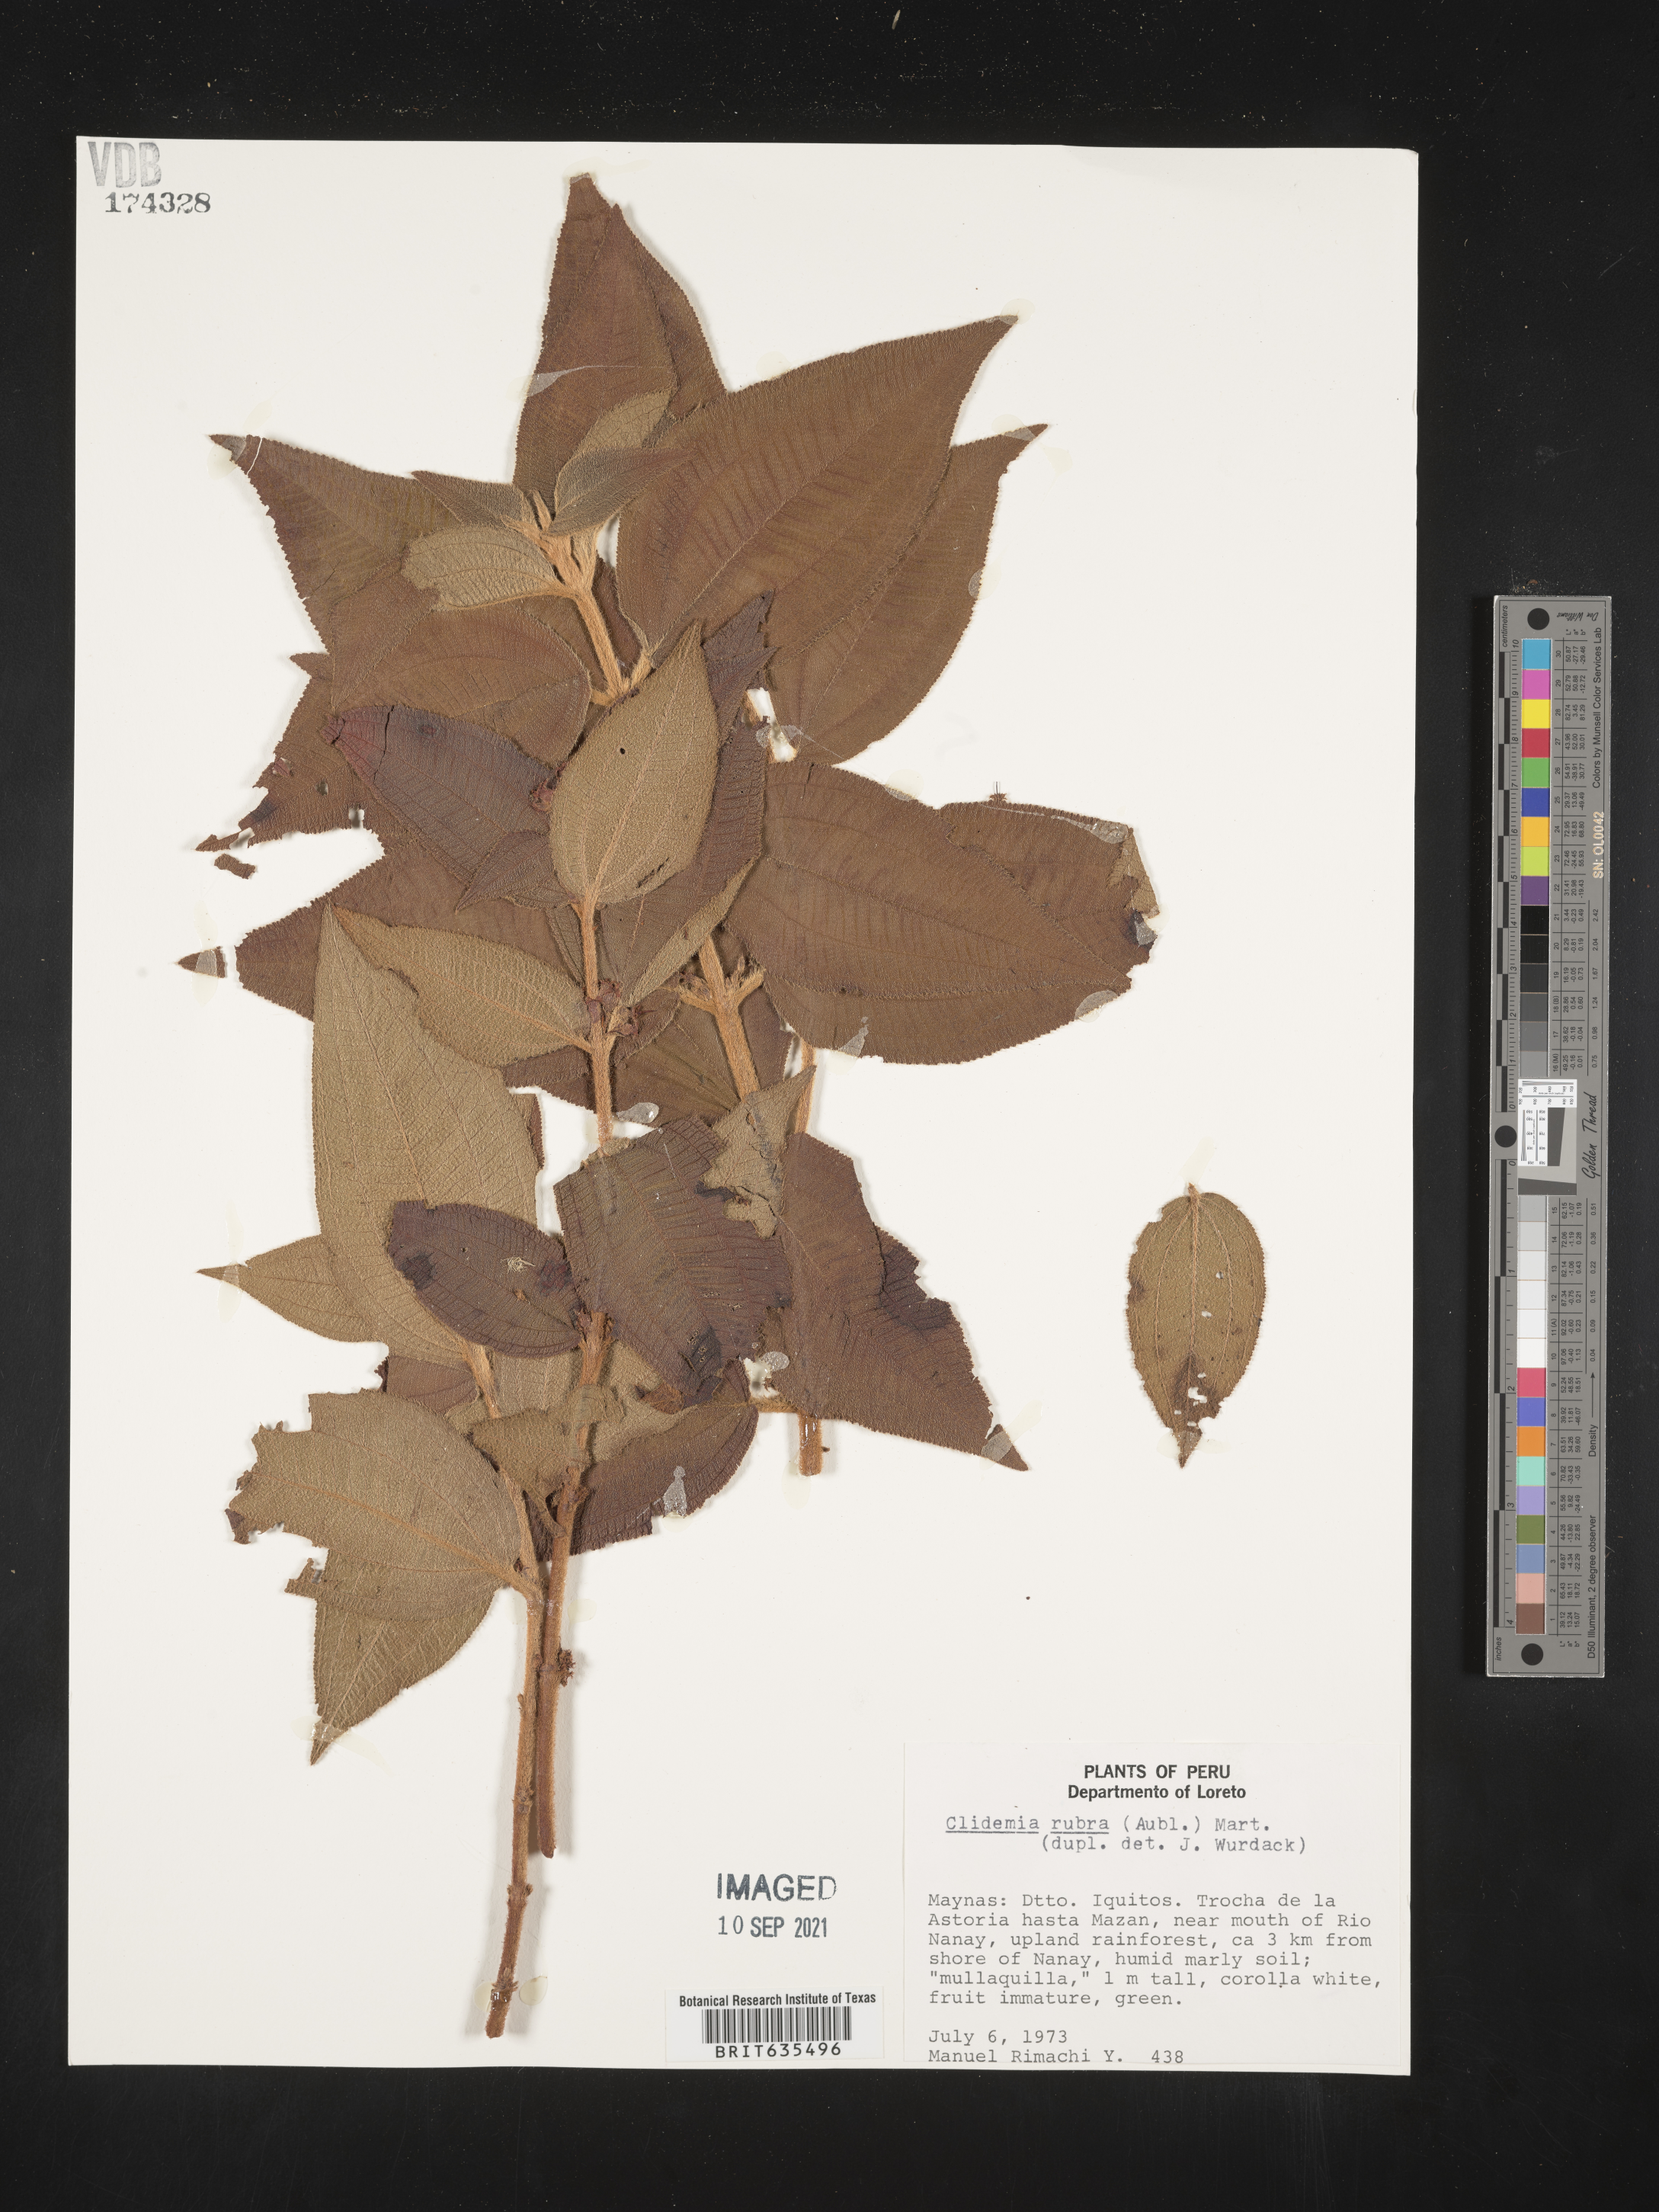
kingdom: Plantae
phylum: Tracheophyta
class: Magnoliopsida
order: Myrtales
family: Melastomataceae
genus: Miconia
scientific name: Miconia
